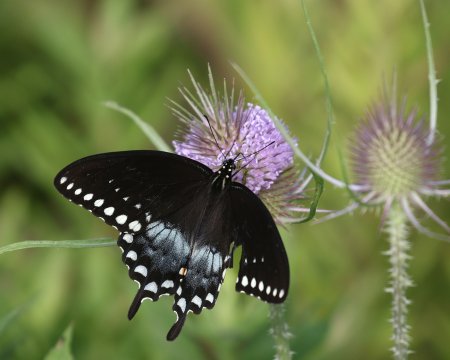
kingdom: Animalia
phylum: Arthropoda
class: Insecta
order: Lepidoptera
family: Papilionidae
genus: Pterourus
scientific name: Pterourus troilus
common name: Spicebush Swallowtail
